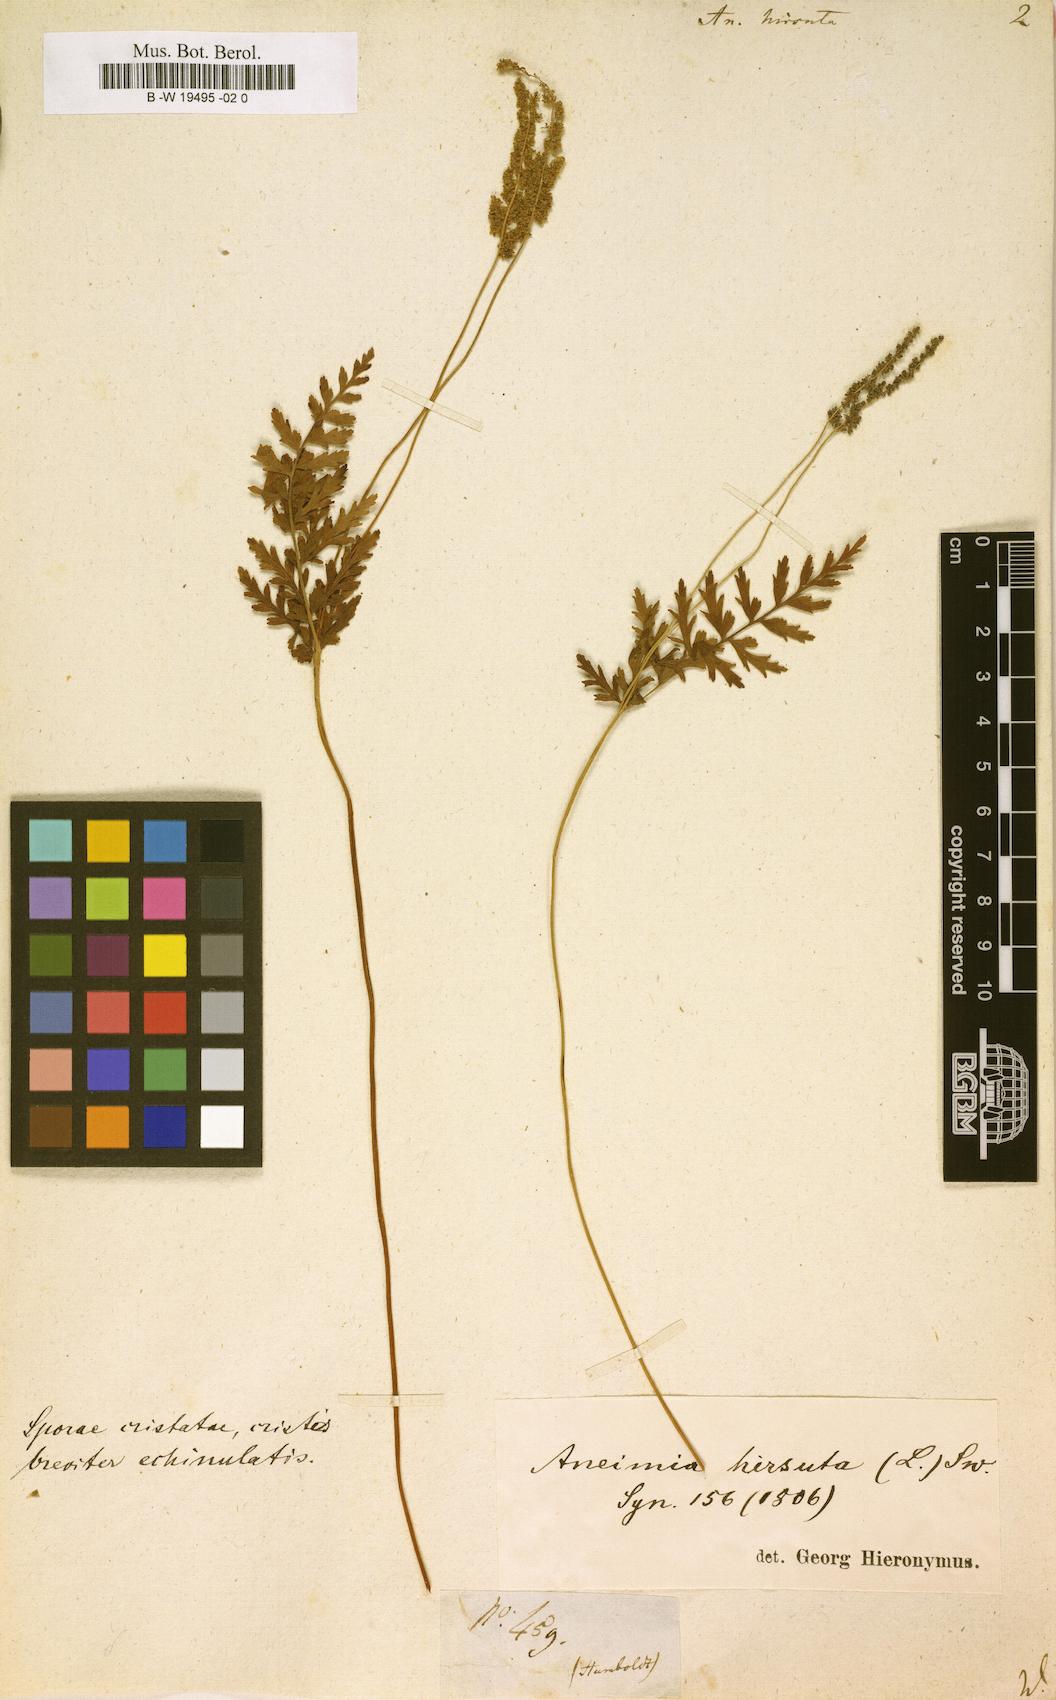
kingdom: Plantae
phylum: Tracheophyta
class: Polypodiopsida
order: Schizaeales
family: Anemiaceae
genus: Anemia
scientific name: Anemia hirsuta
